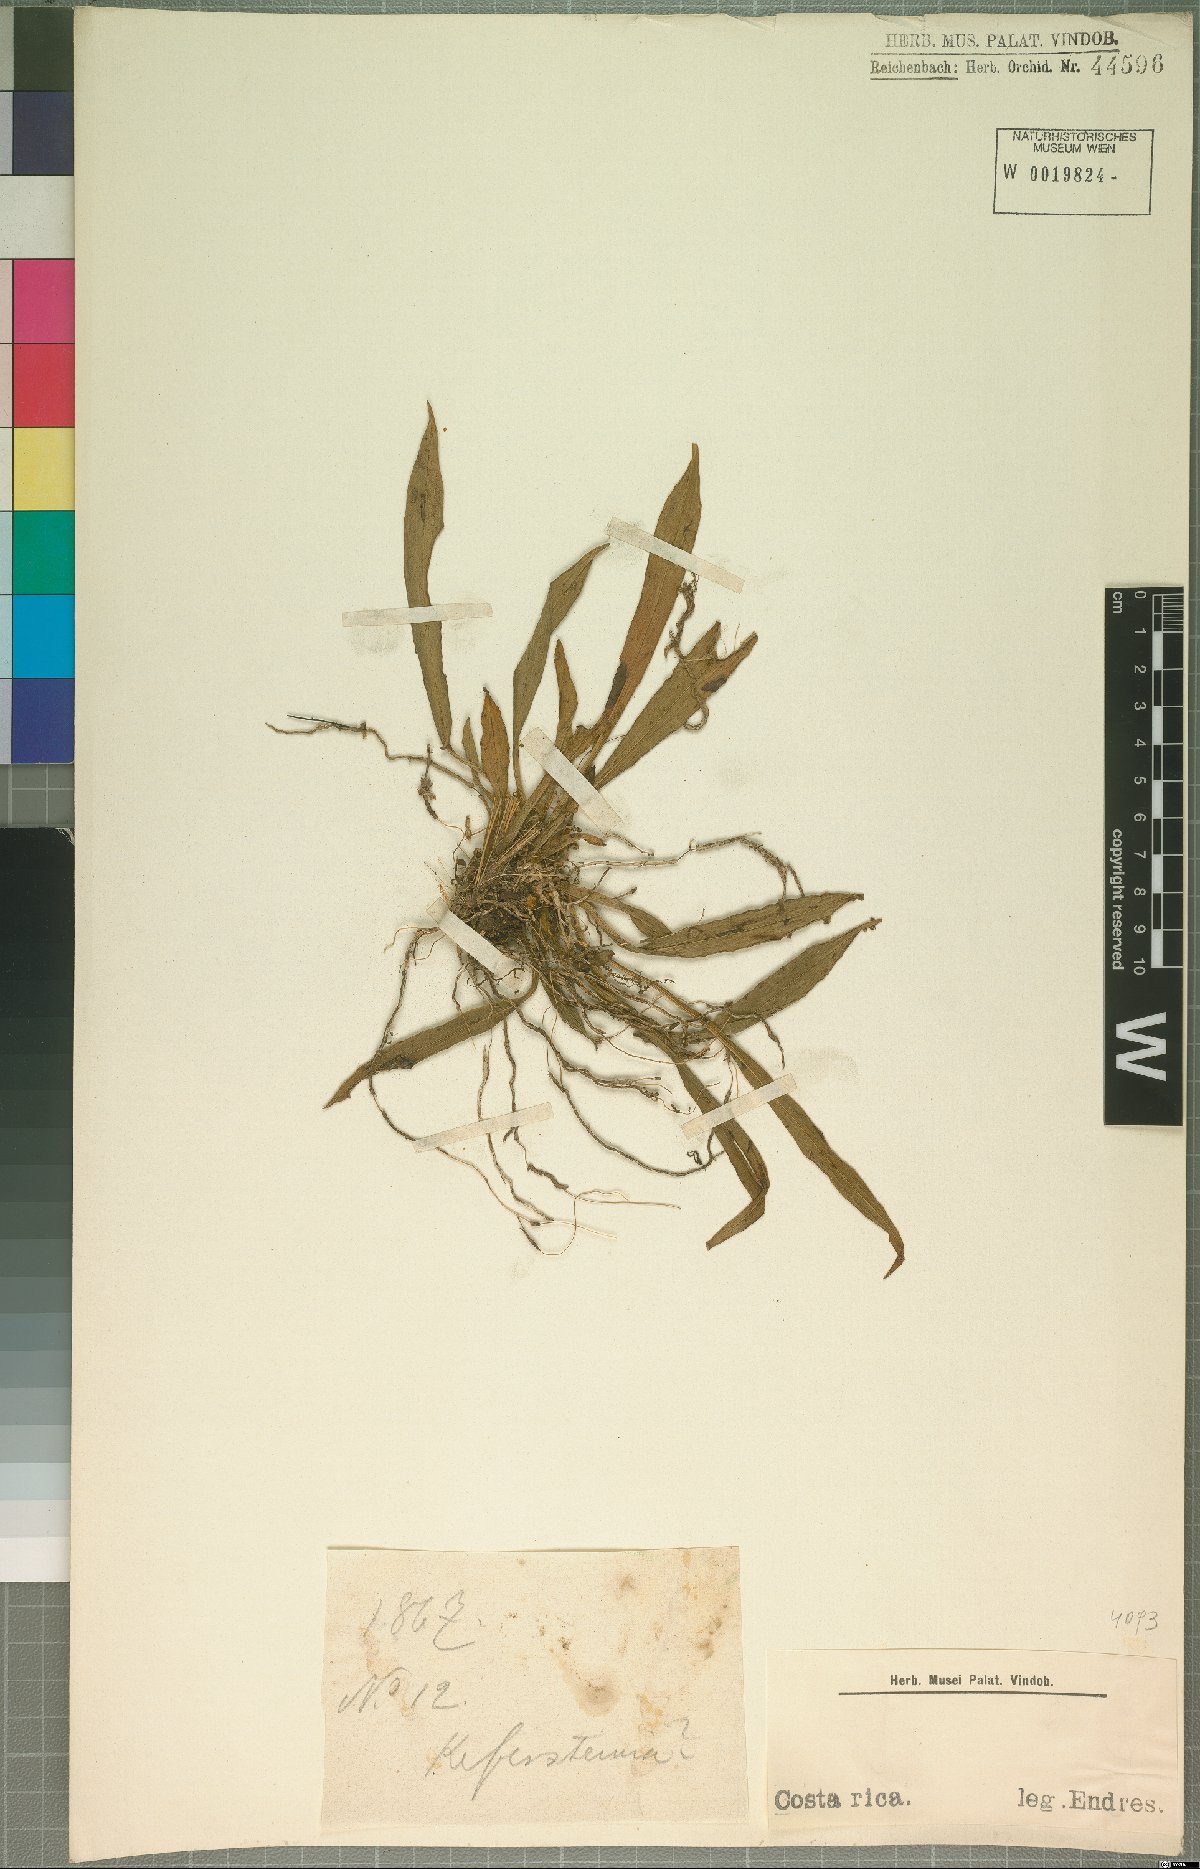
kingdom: Plantae
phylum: Tracheophyta
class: Liliopsida
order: Asparagales
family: Orchidaceae
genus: Kefersteinia
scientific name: Kefersteinia
